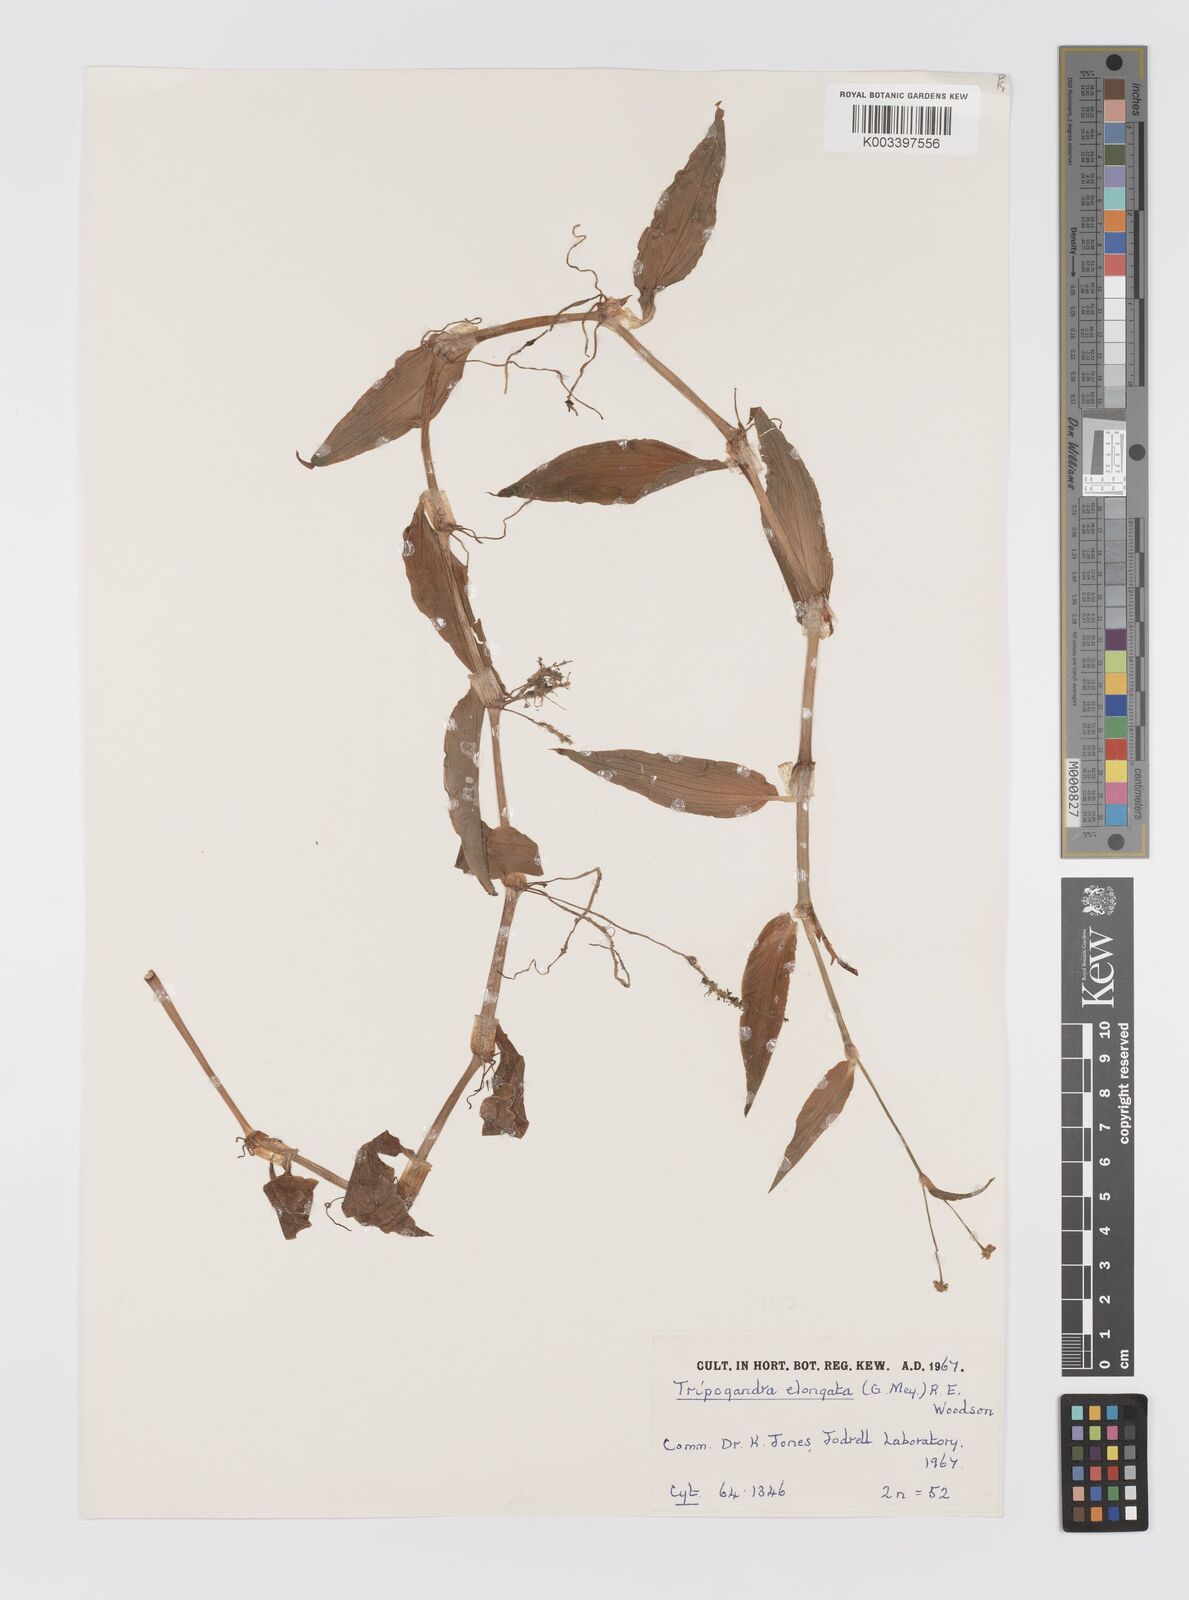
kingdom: Plantae
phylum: Tracheophyta
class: Liliopsida
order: Commelinales
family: Commelinaceae
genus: Callisia
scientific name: Callisia serrulata
